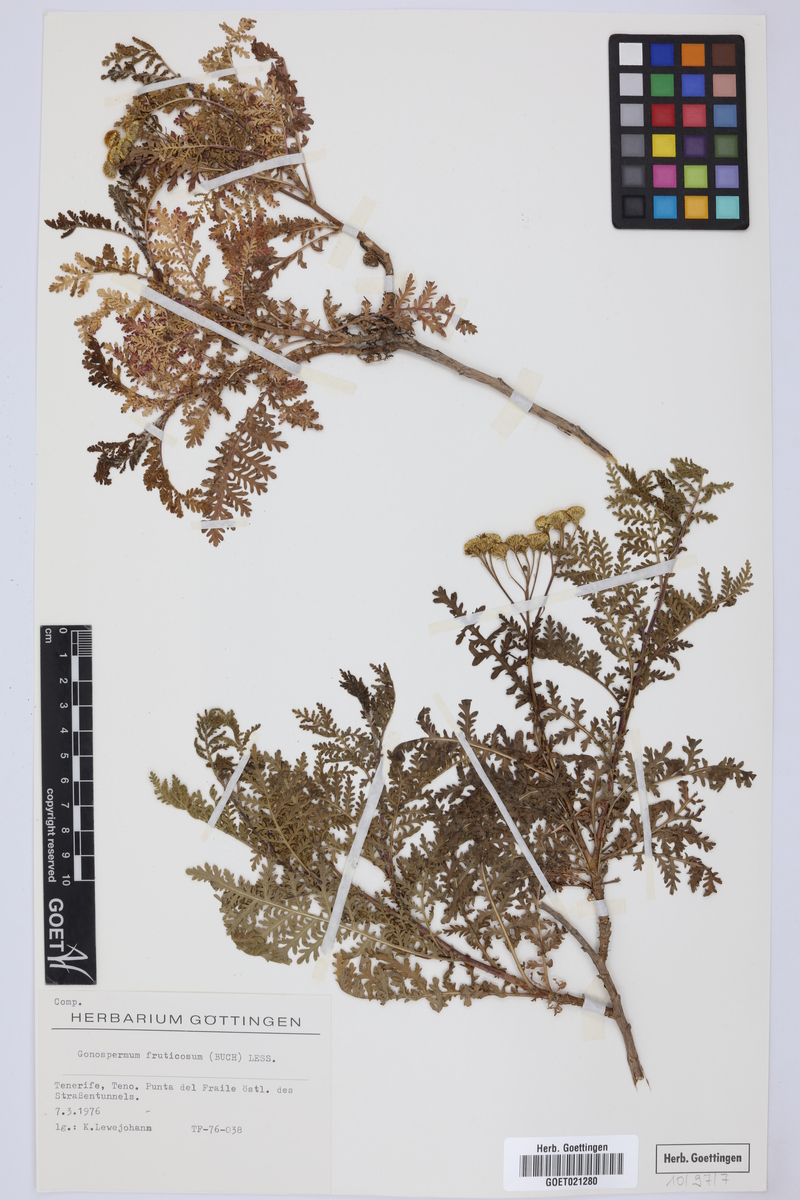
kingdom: Plantae
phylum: Tracheophyta
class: Magnoliopsida
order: Asterales
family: Asteraceae
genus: Gonospermum
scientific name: Gonospermum fruticosum
